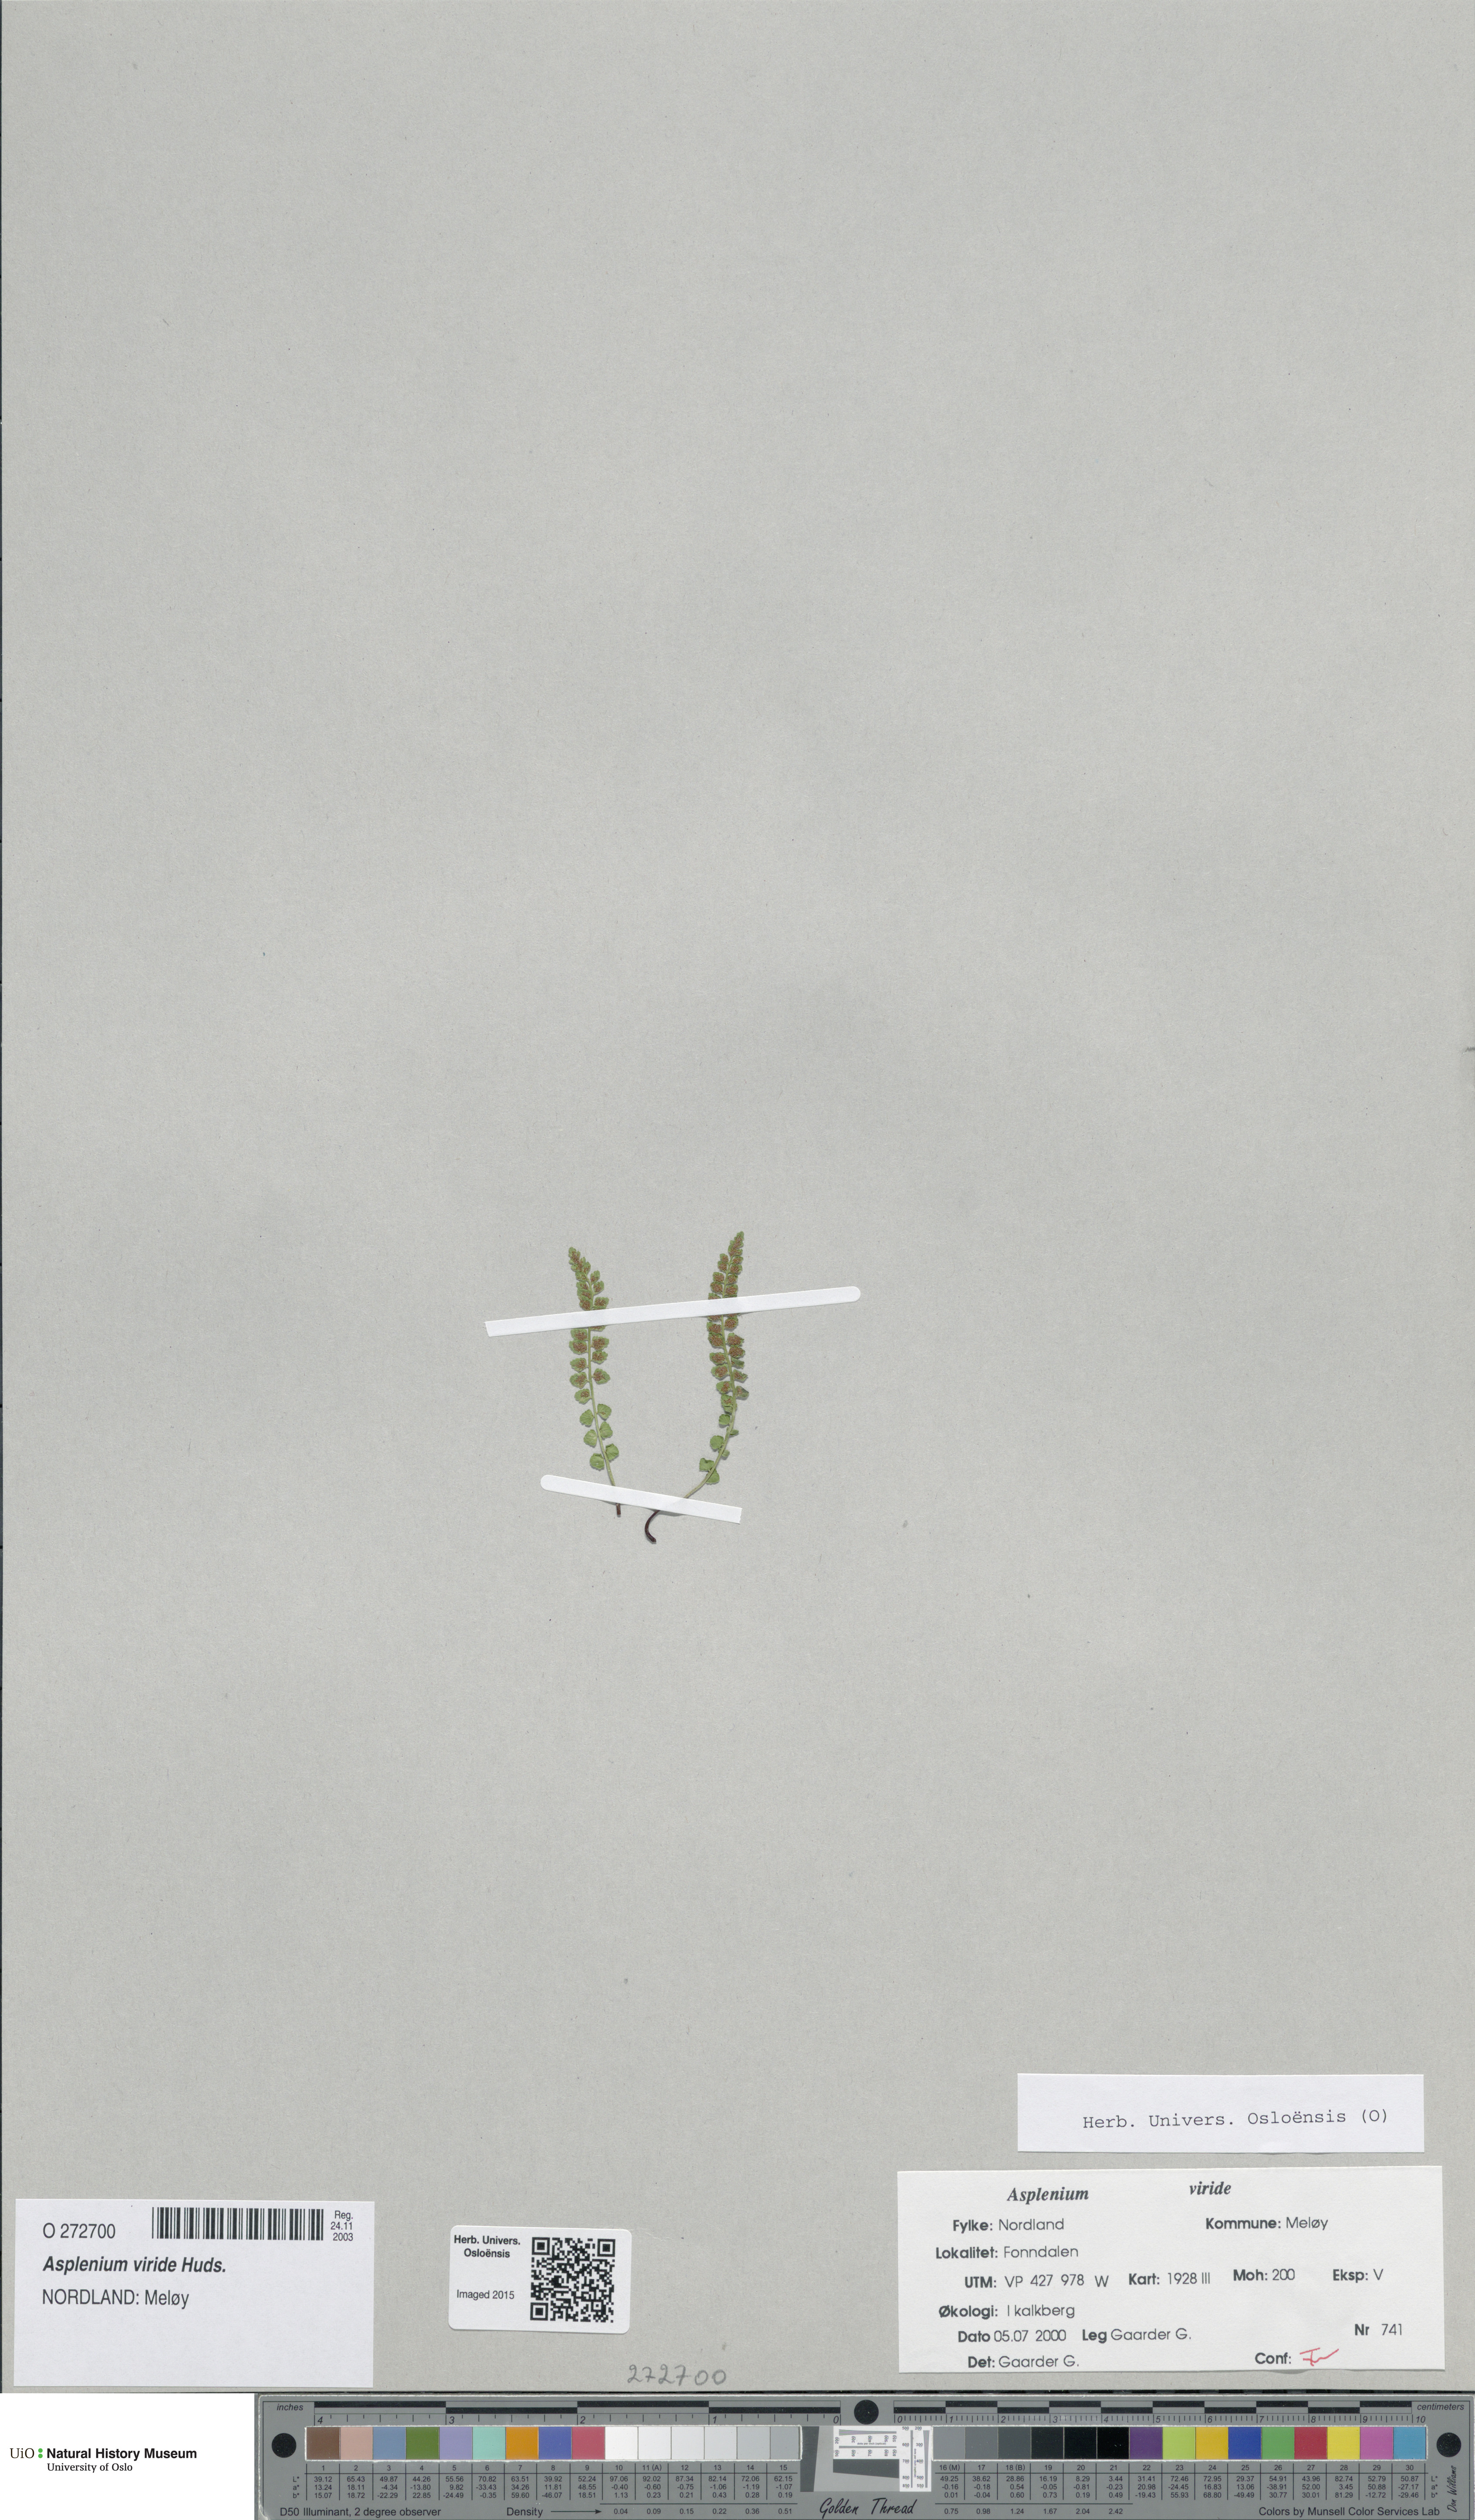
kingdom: Plantae
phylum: Tracheophyta
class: Polypodiopsida
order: Polypodiales
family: Aspleniaceae
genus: Asplenium
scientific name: Asplenium viride
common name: Green spleenwort
